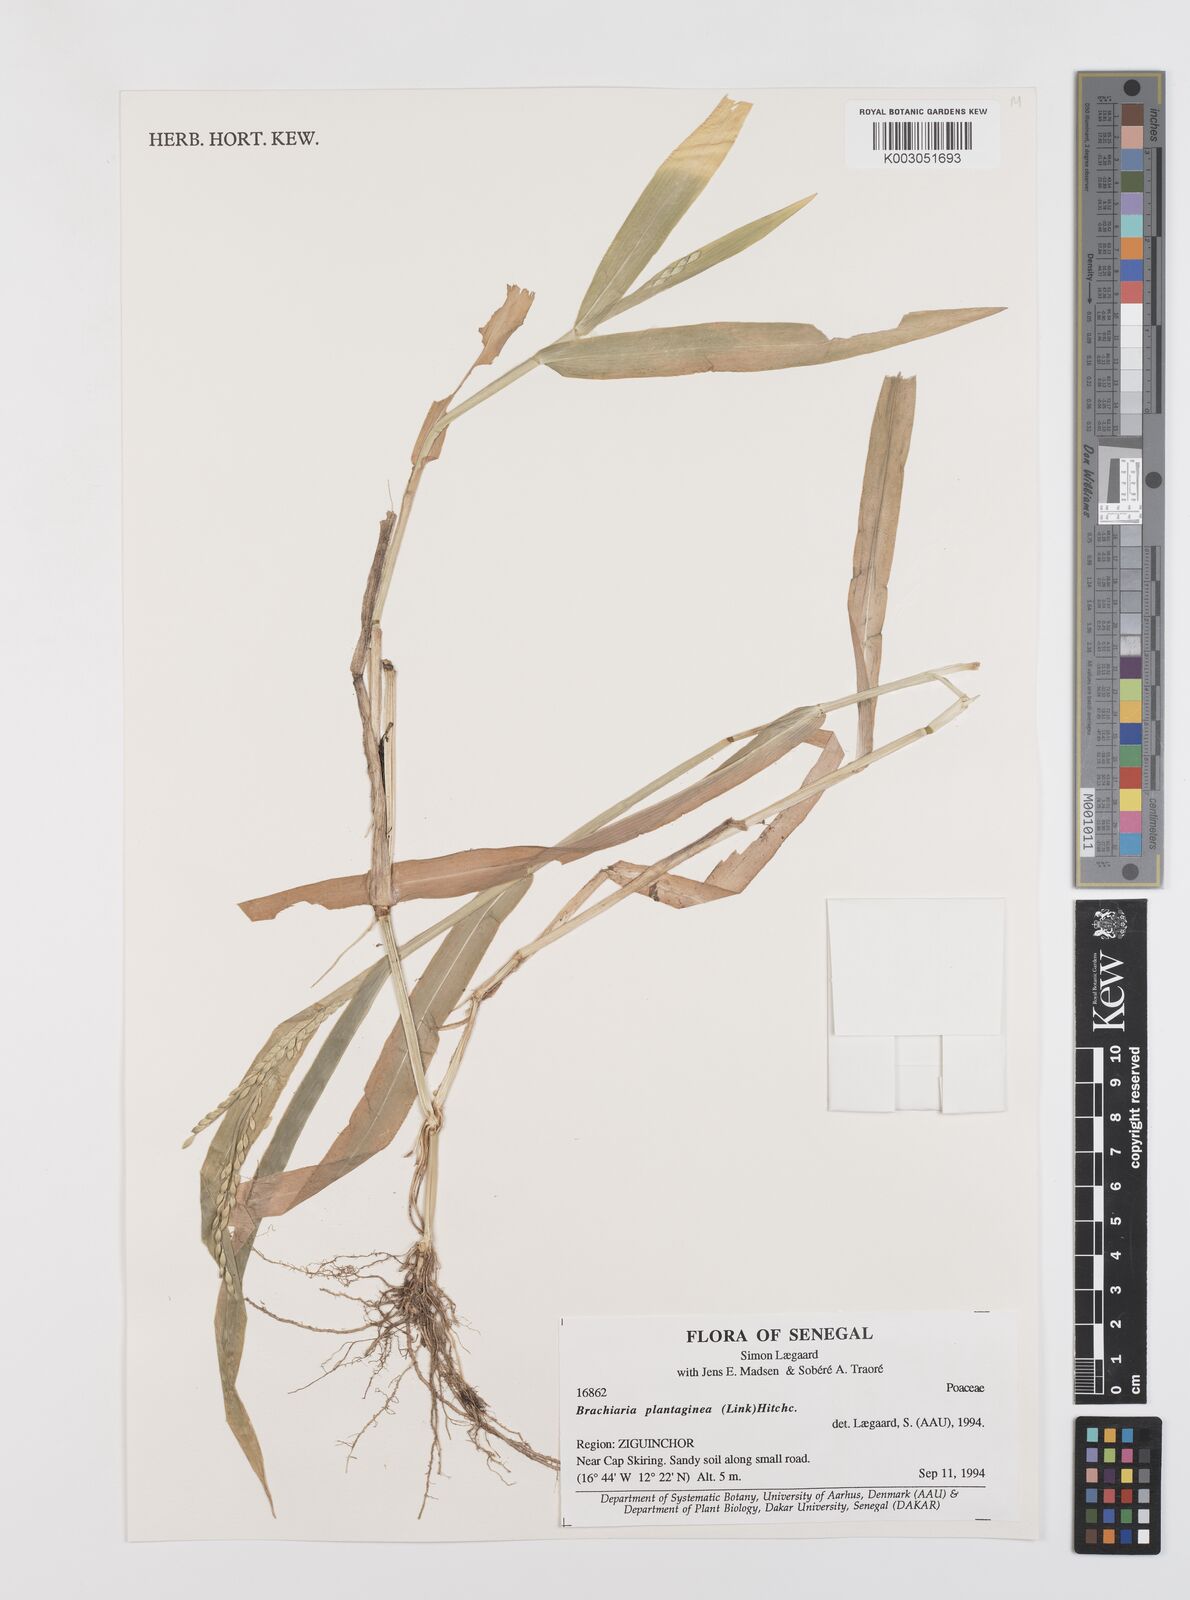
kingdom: Plantae
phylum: Tracheophyta
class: Liliopsida
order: Poales
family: Poaceae
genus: Urochloa
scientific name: Urochloa plantaginea
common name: Plantain signalgrass
